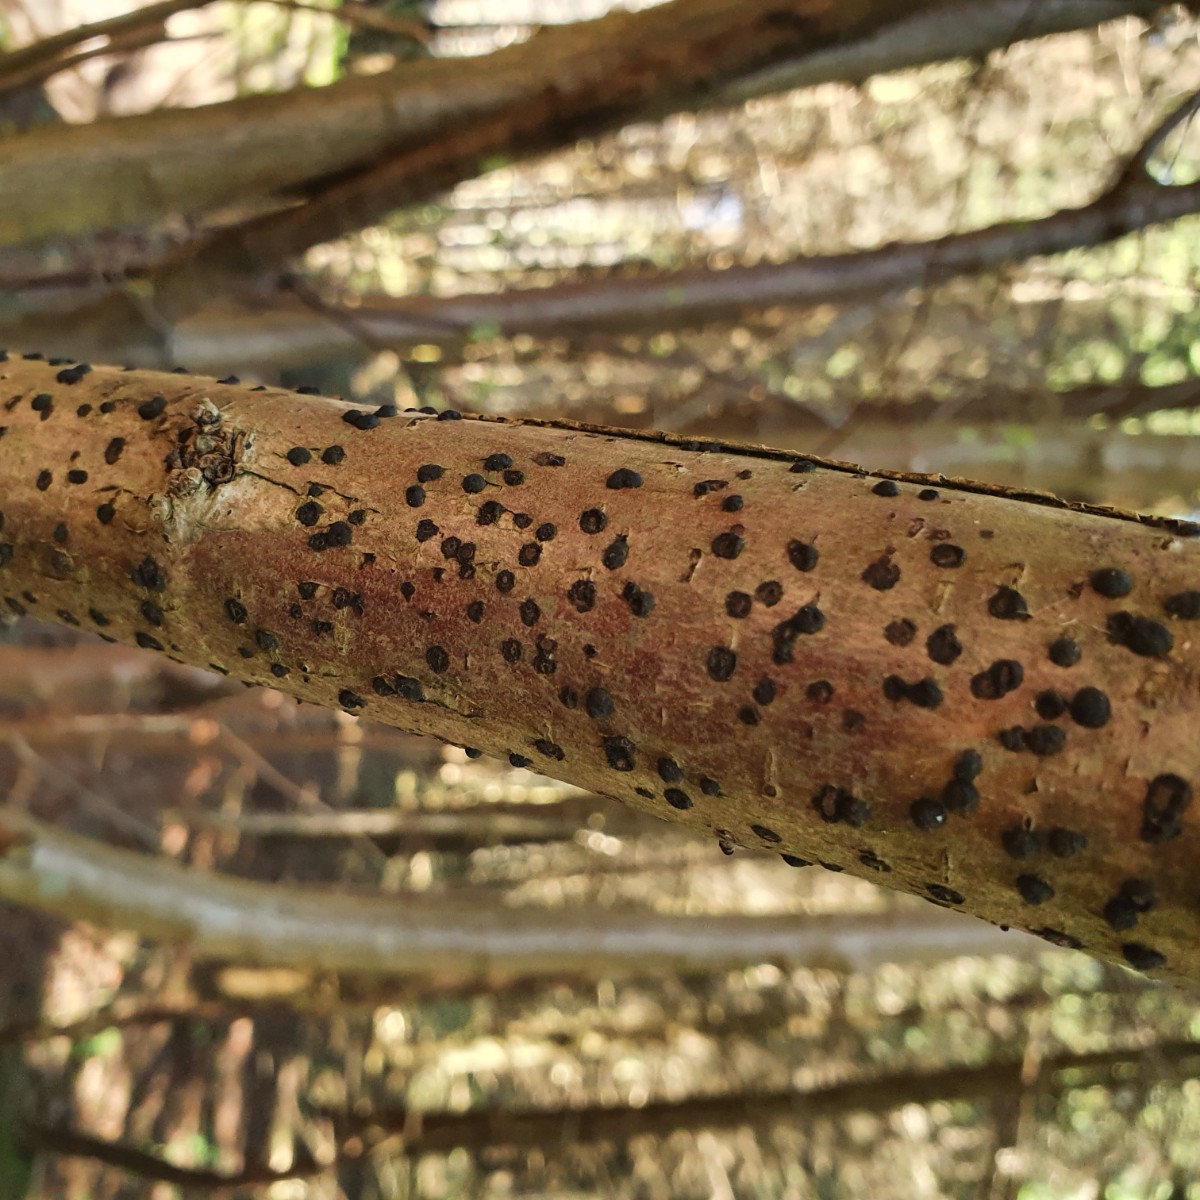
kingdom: Fungi
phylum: Ascomycota
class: Sordariomycetes
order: Xylariales
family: Hypoxylaceae
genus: Hypoxylon
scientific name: Hypoxylon fuscum
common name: kegleformet kulbær
